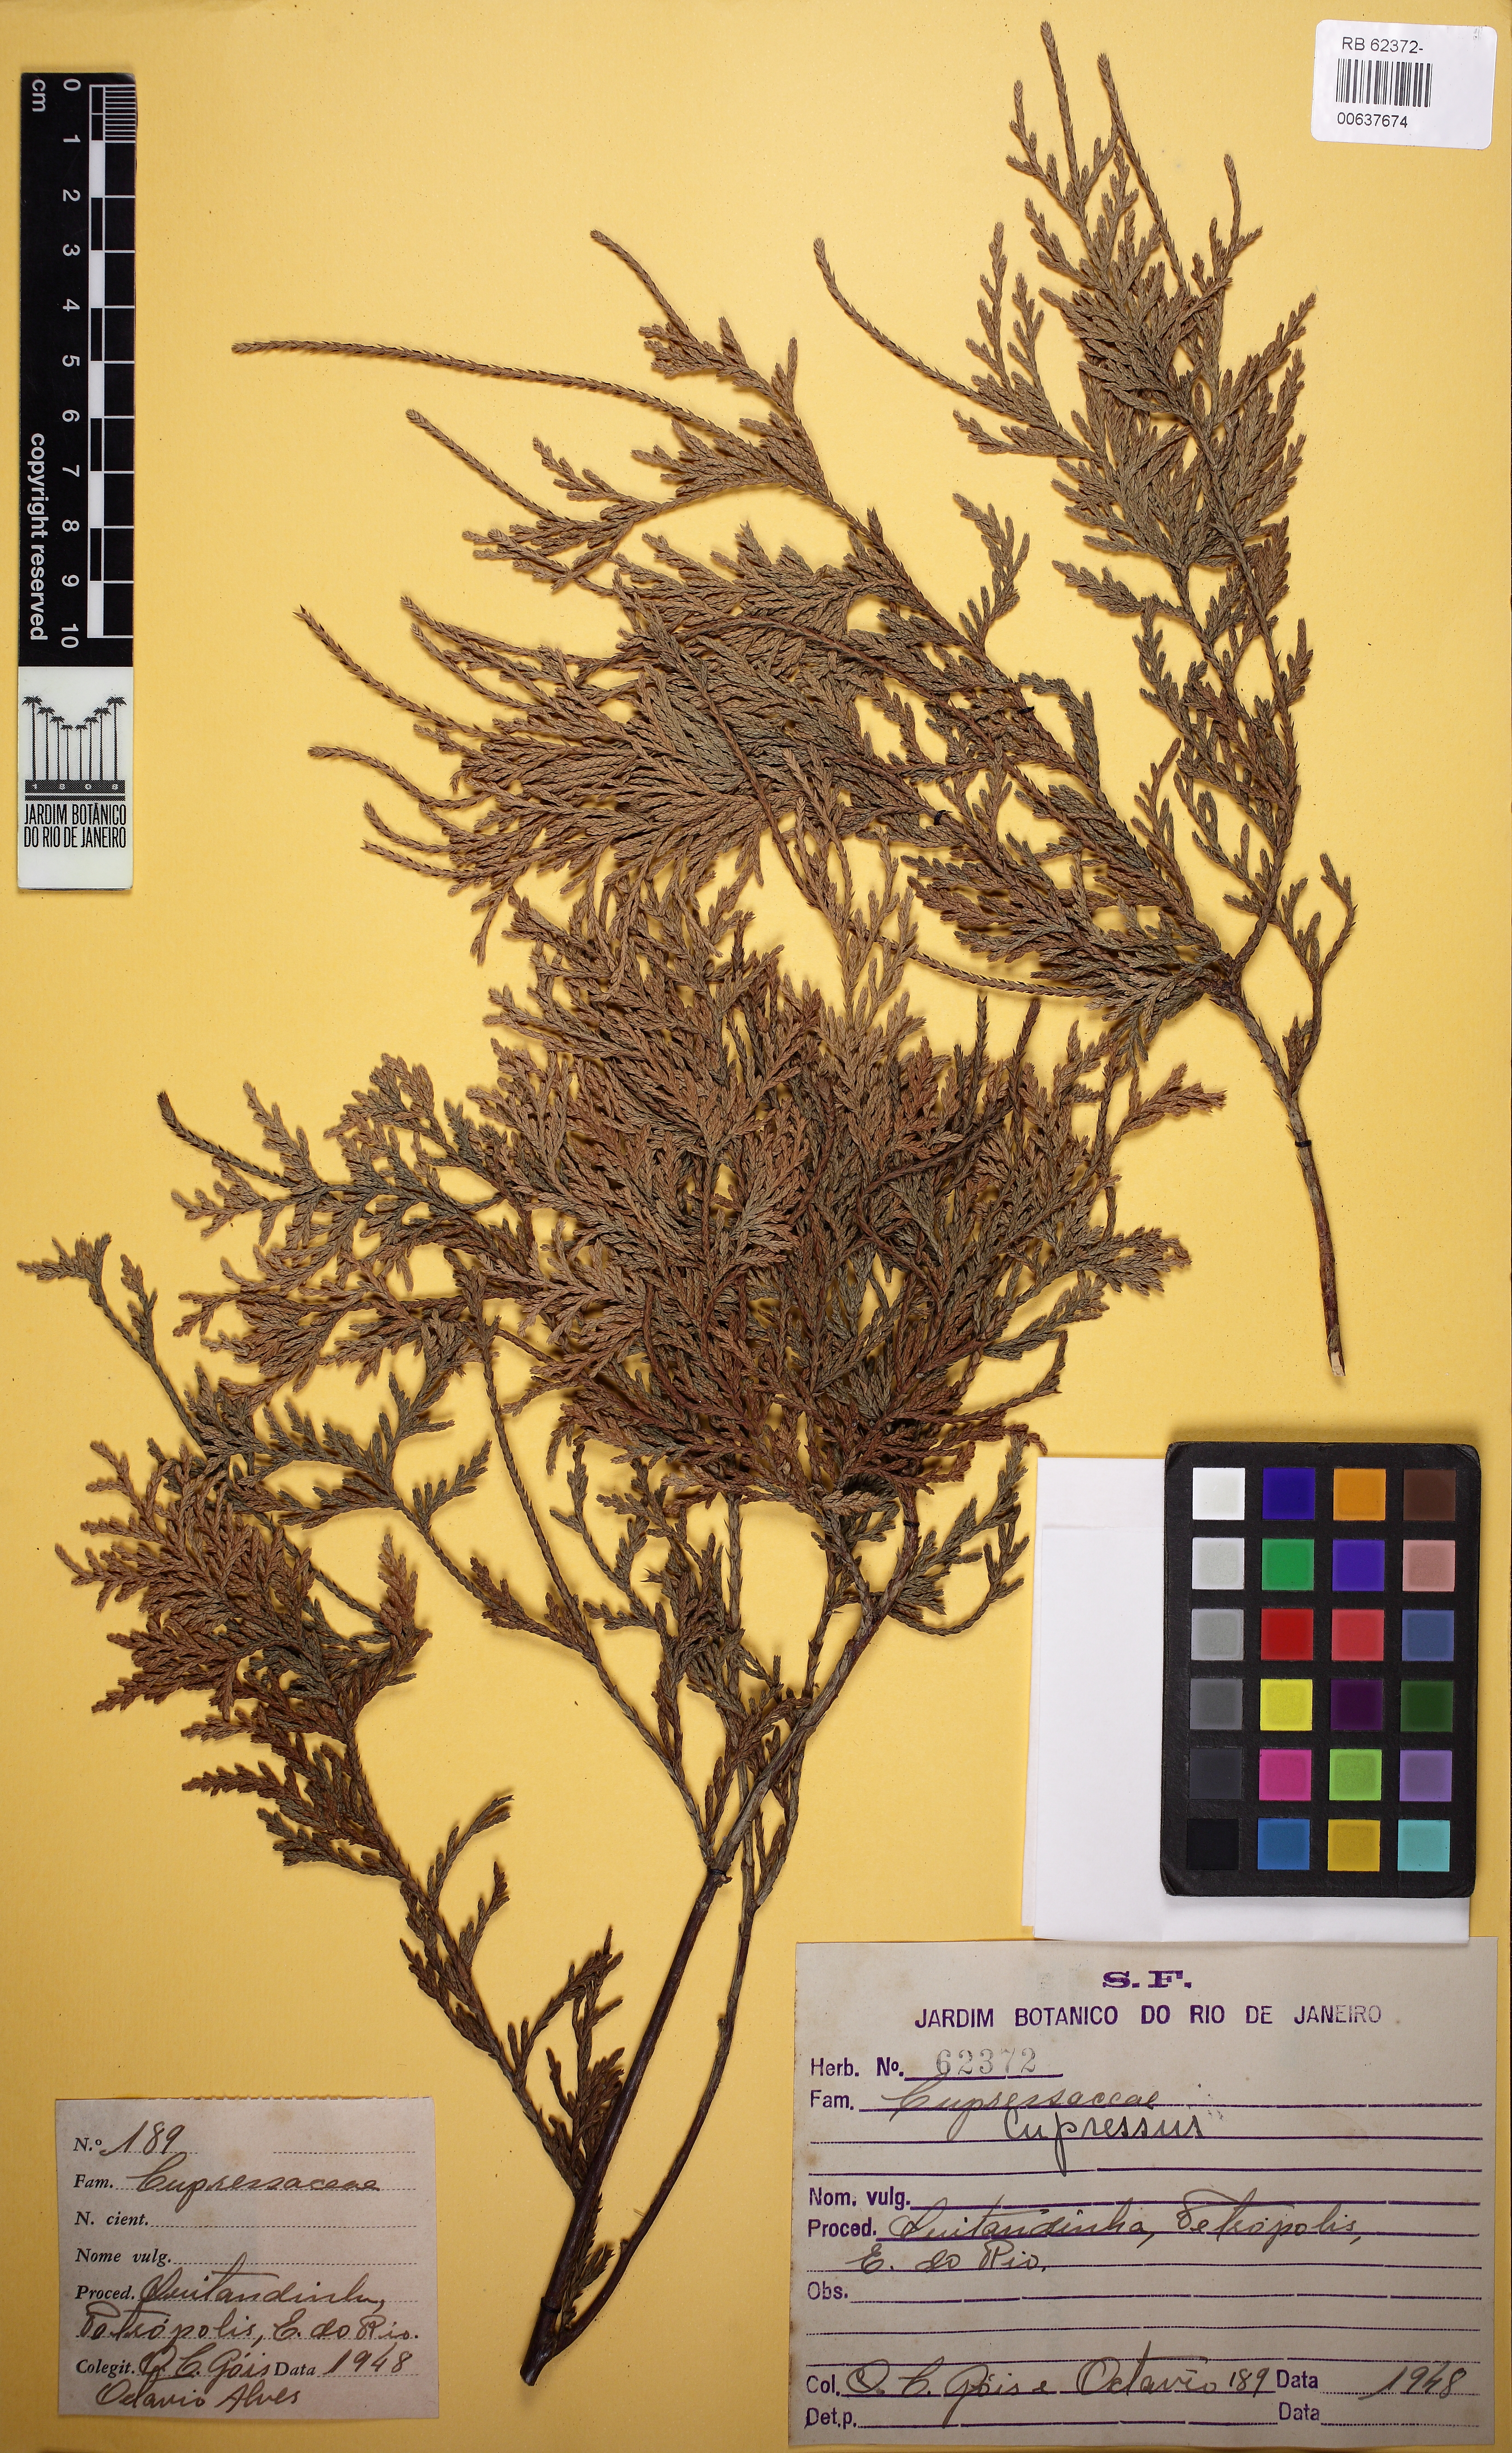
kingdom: Plantae
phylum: Tracheophyta
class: Pinopsida
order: Pinales
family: Cupressaceae
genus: Cupressus
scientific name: Cupressus
